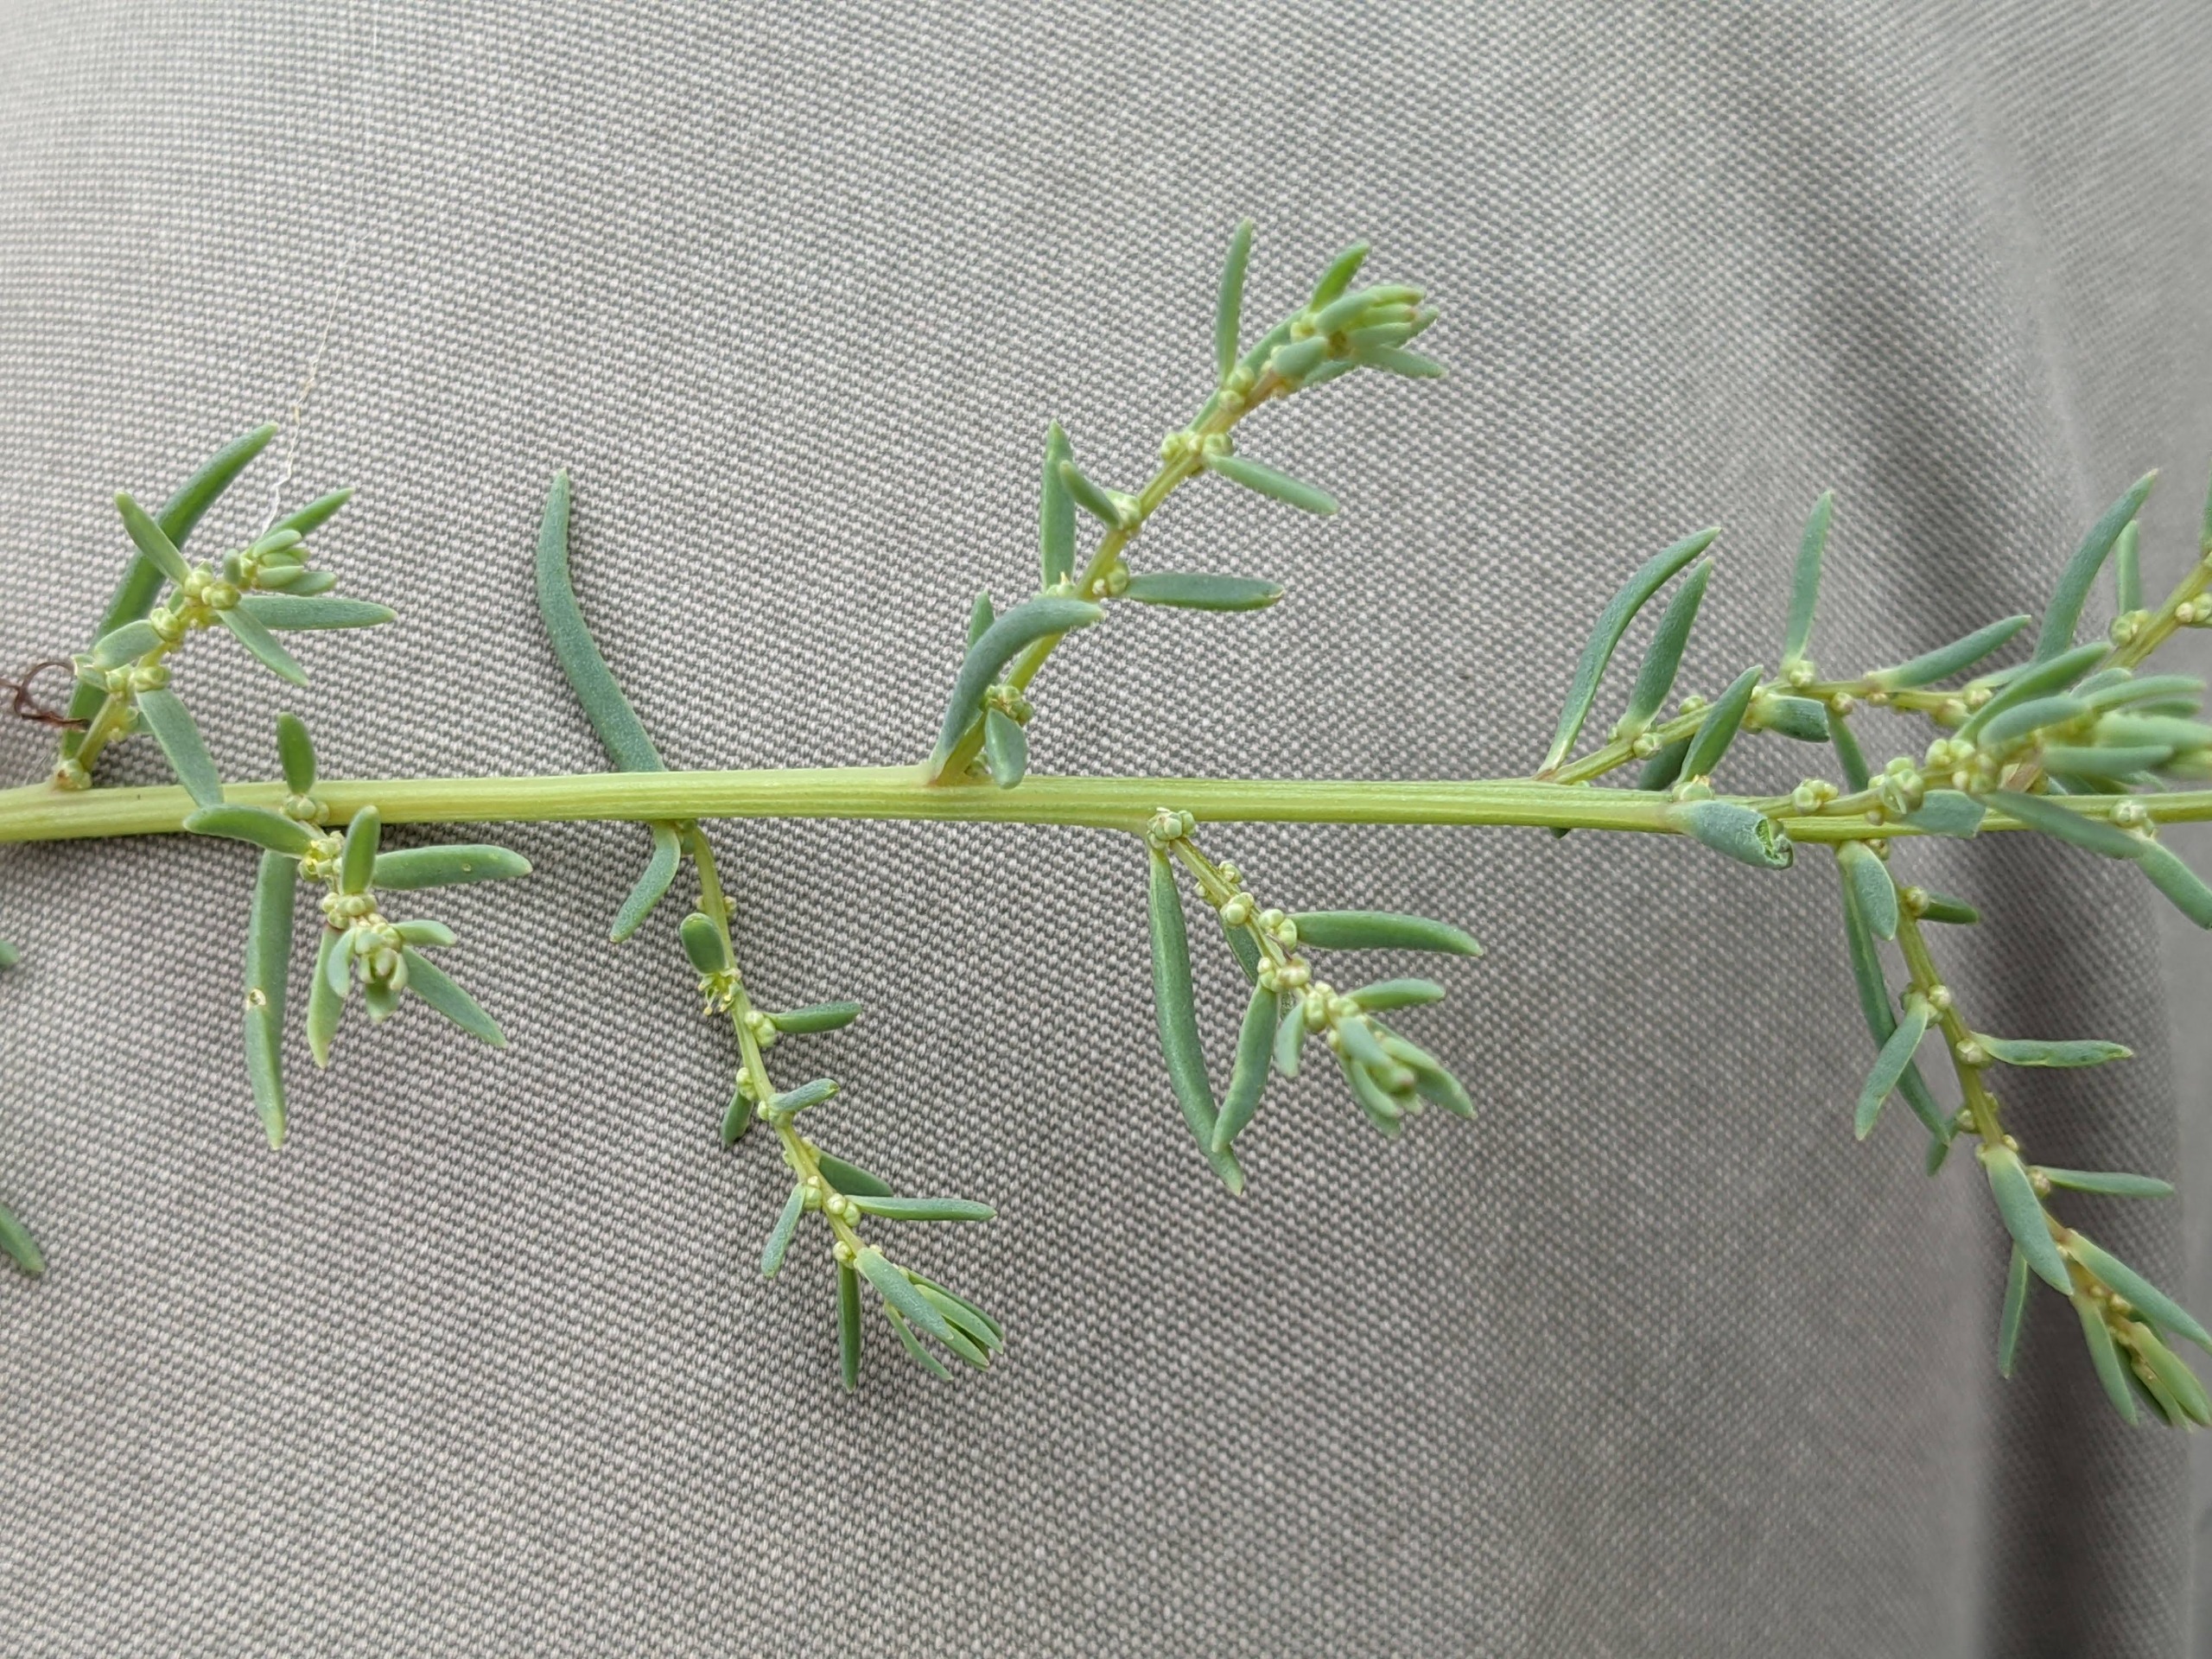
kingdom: Plantae
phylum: Tracheophyta
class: Magnoliopsida
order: Caryophyllales
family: Amaranthaceae
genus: Suaeda
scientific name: Suaeda maritima
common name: Strandgåsefod
